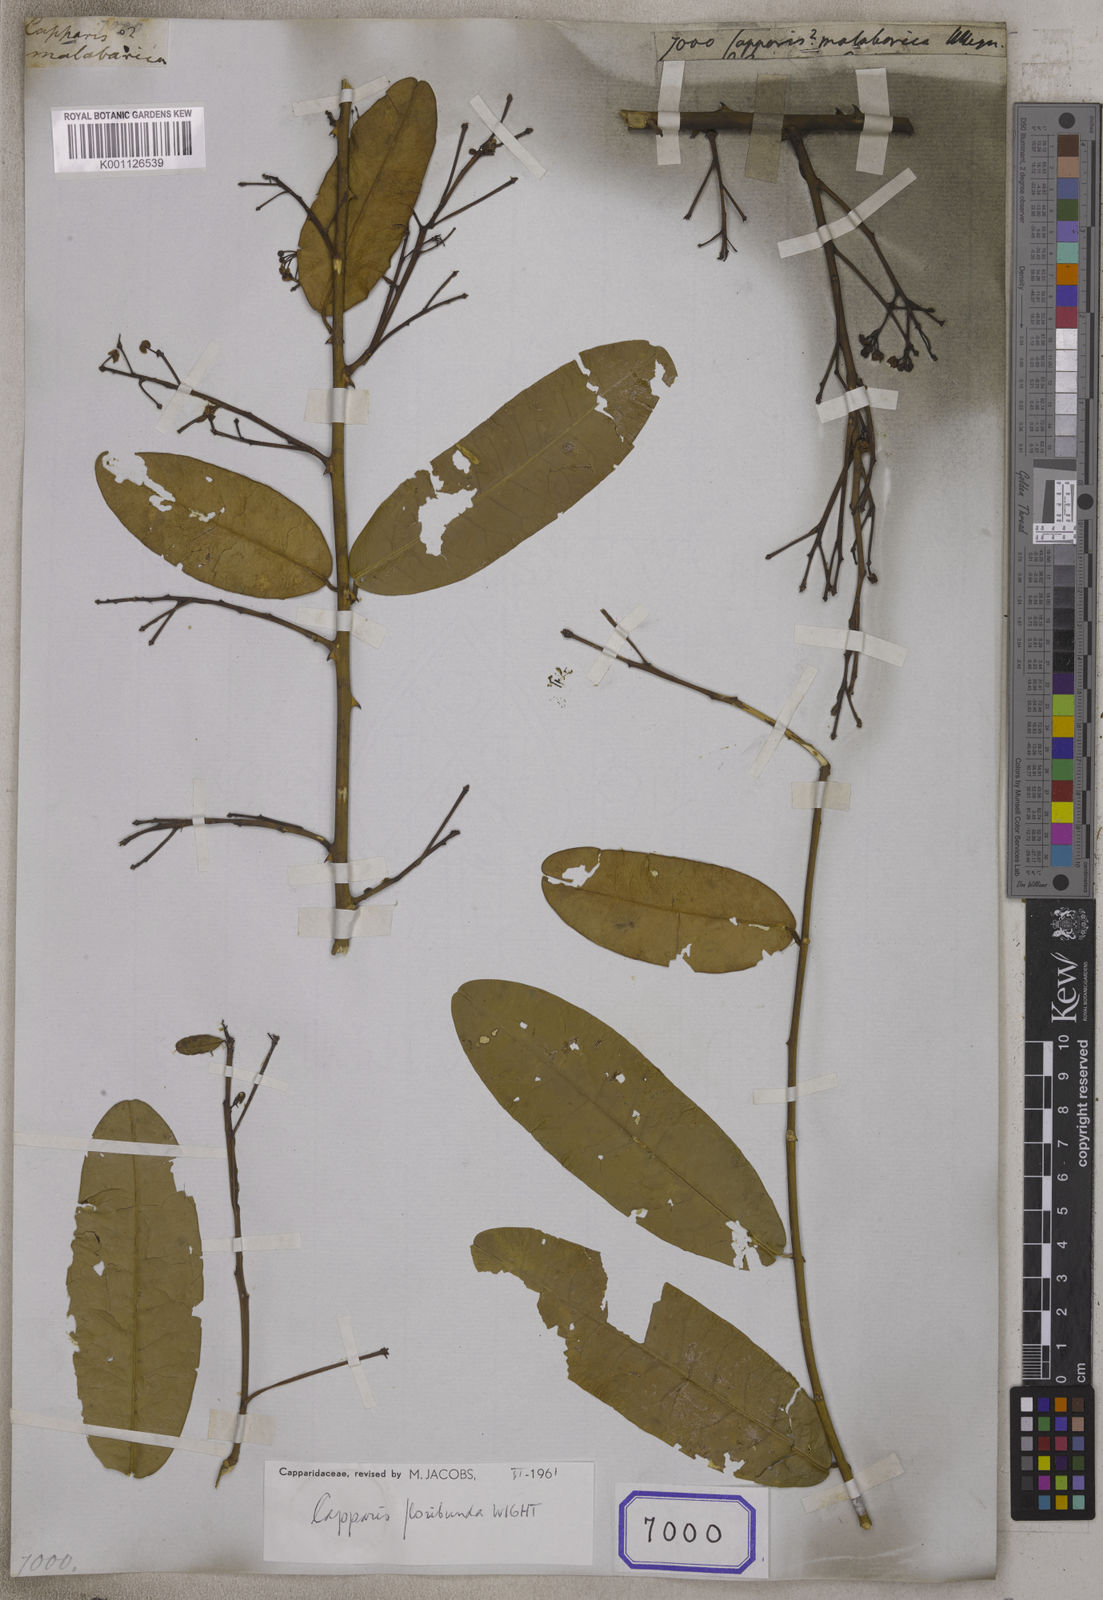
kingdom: Plantae
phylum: Tracheophyta
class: Magnoliopsida
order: Brassicales
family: Capparaceae
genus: Capparis
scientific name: Capparis
